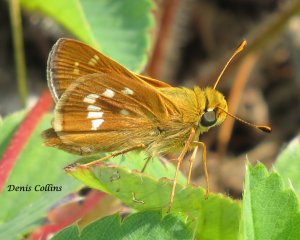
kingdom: Animalia
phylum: Arthropoda
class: Insecta
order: Lepidoptera
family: Hesperiidae
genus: Hesperia
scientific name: Hesperia leonardus
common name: Leonard's Skipper
